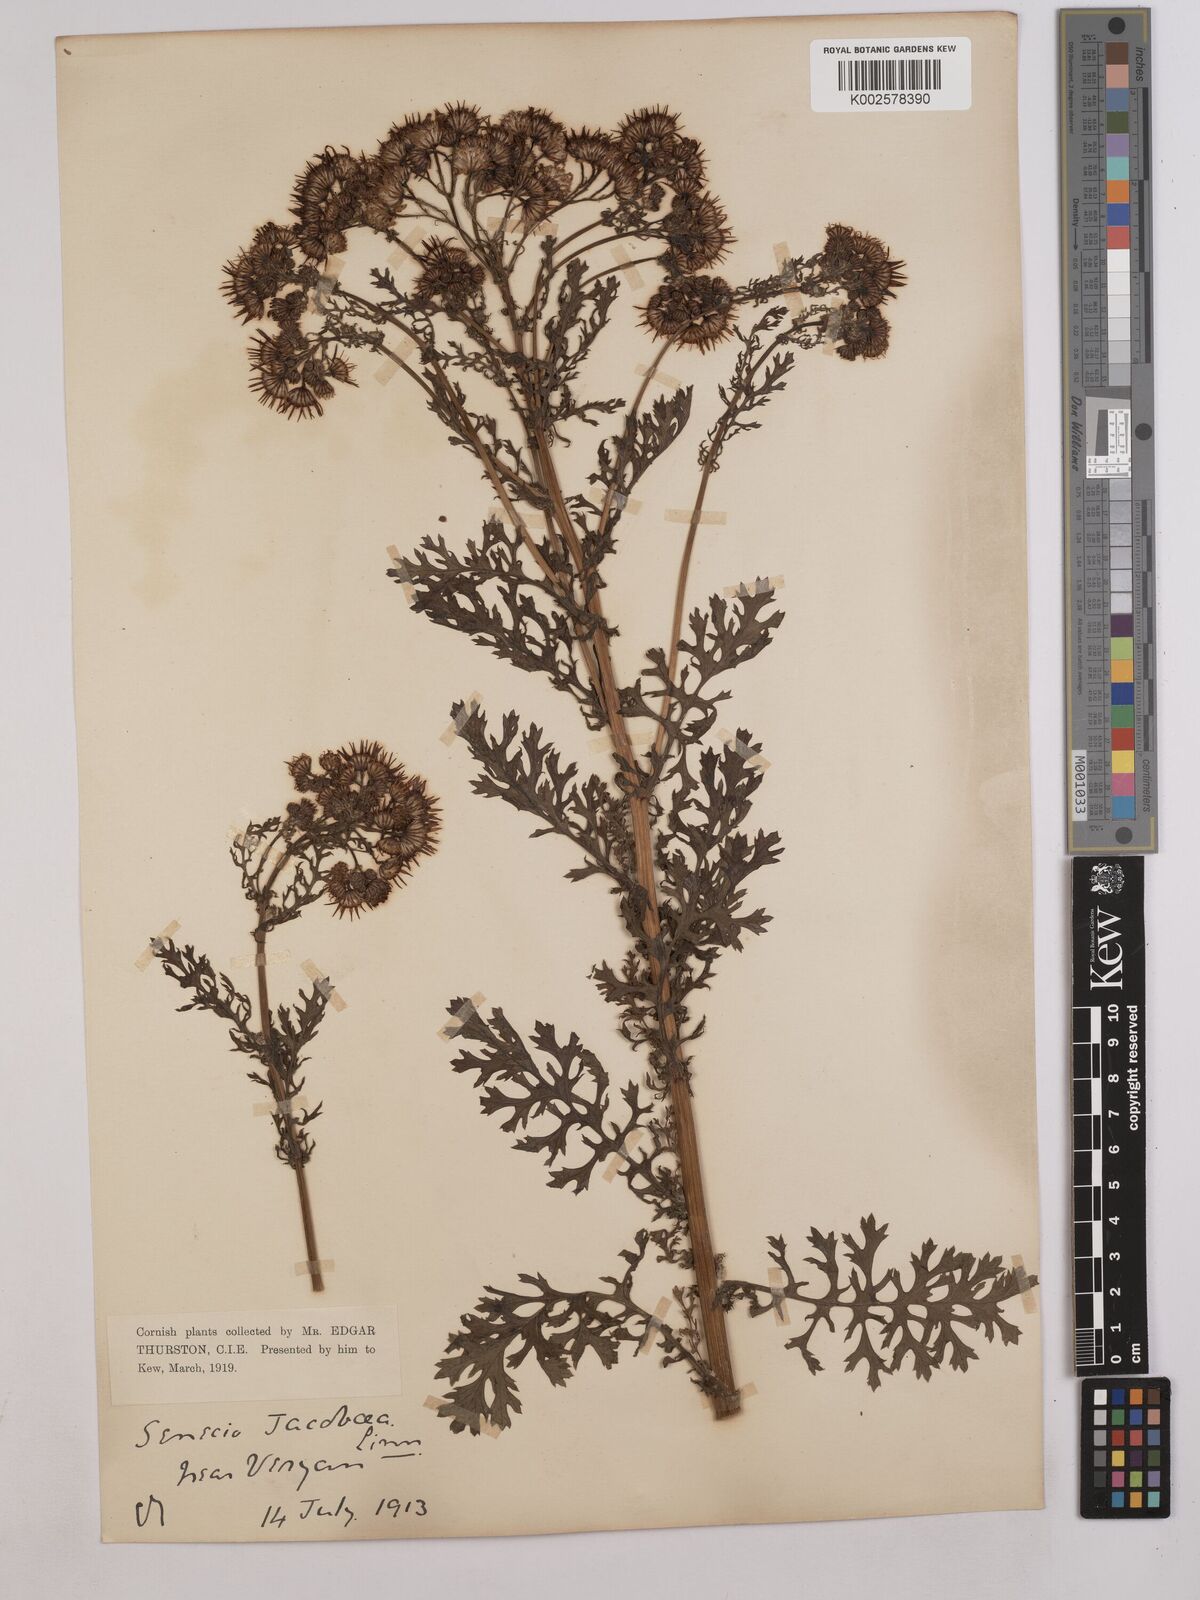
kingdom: Plantae
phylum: Tracheophyta
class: Magnoliopsida
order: Asterales
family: Asteraceae
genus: Jacobaea
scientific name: Jacobaea vulgaris
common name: Stinking willie
